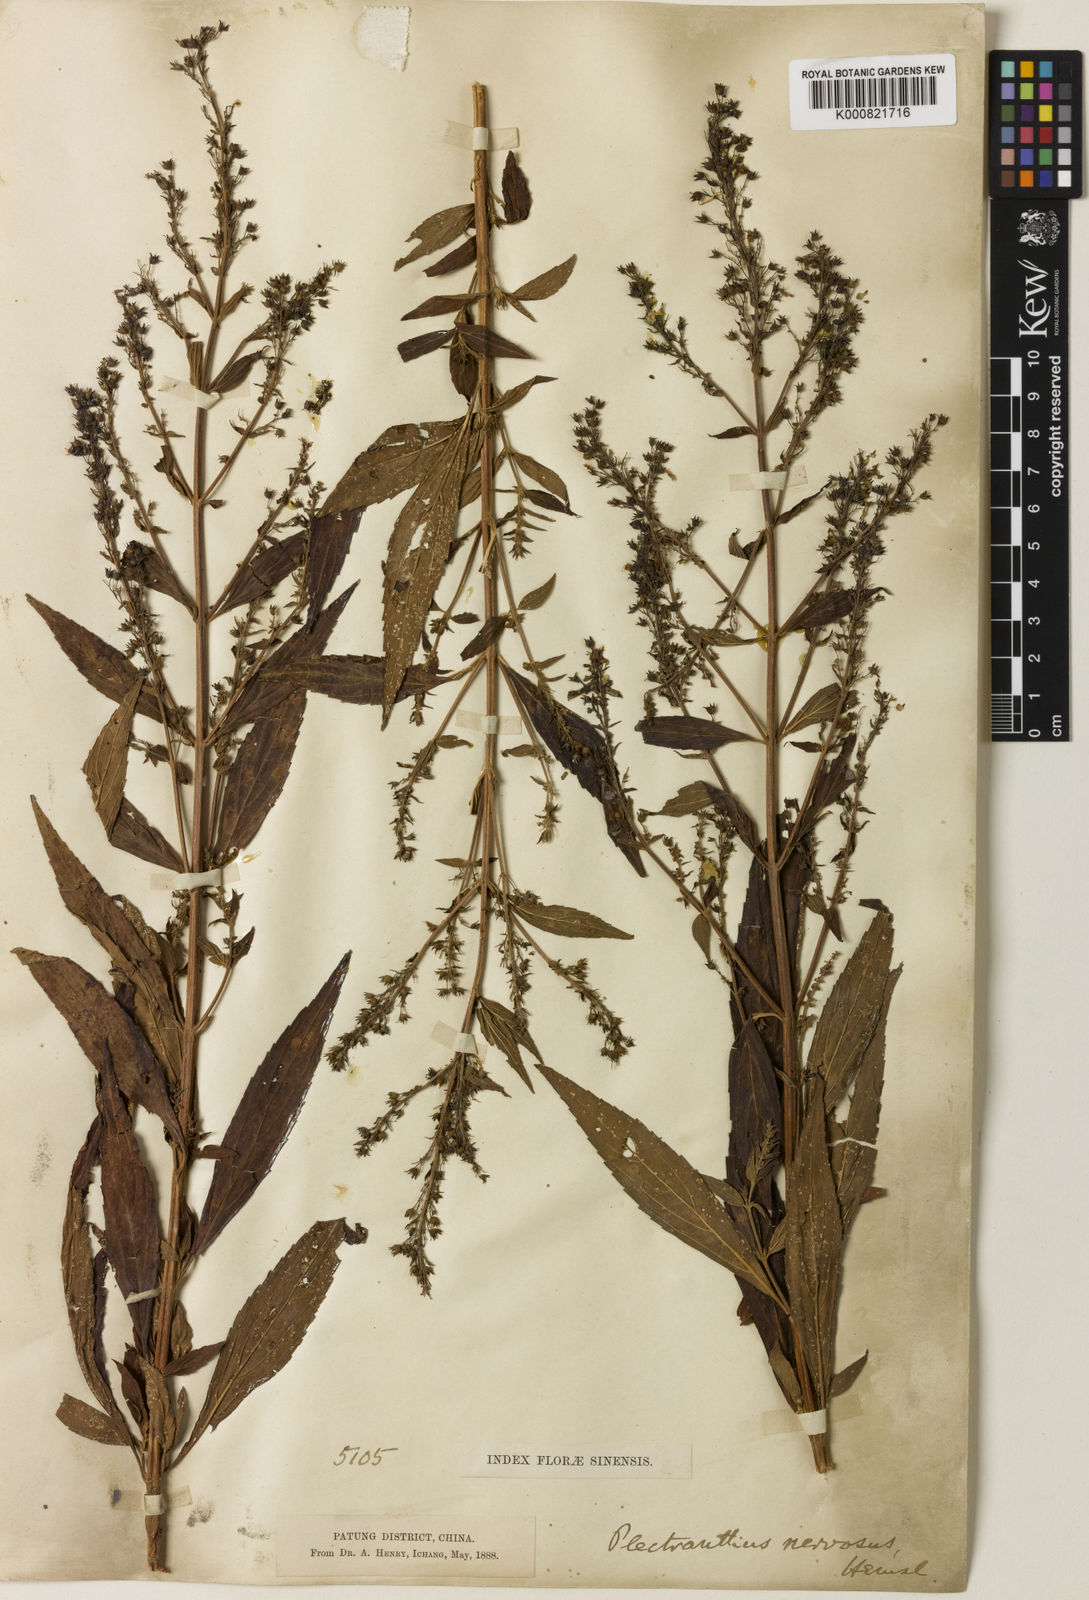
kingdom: Plantae
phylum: Tracheophyta
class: Magnoliopsida
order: Lamiales
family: Lamiaceae
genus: Isodon
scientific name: Isodon
